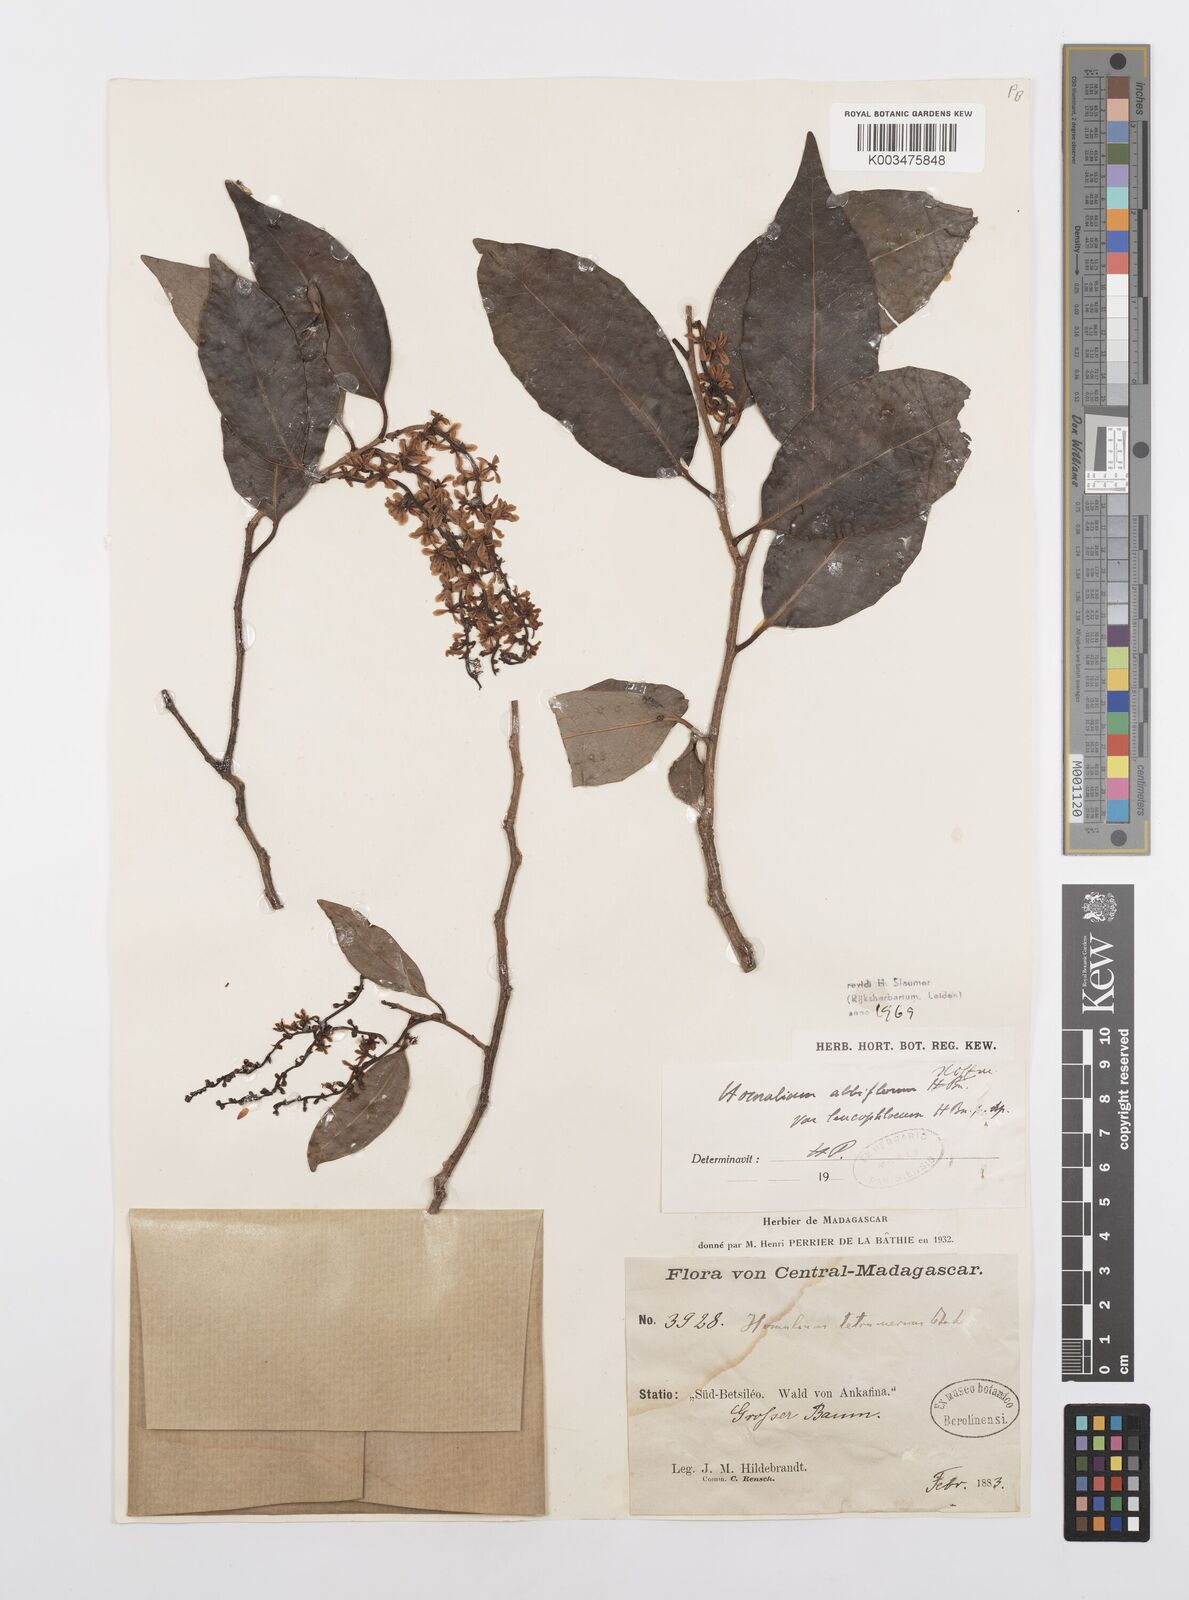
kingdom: Plantae
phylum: Tracheophyta
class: Magnoliopsida
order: Malpighiales
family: Salicaceae
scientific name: Salicaceae
